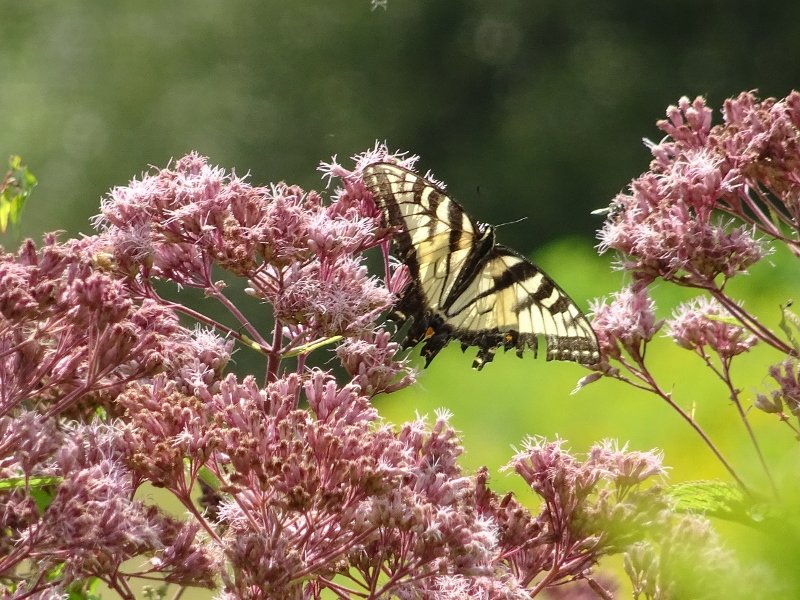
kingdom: Animalia
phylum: Arthropoda
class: Insecta
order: Lepidoptera
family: Papilionidae
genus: Pterourus
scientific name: Pterourus glaucus
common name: Eastern Tiger Swallowtail
